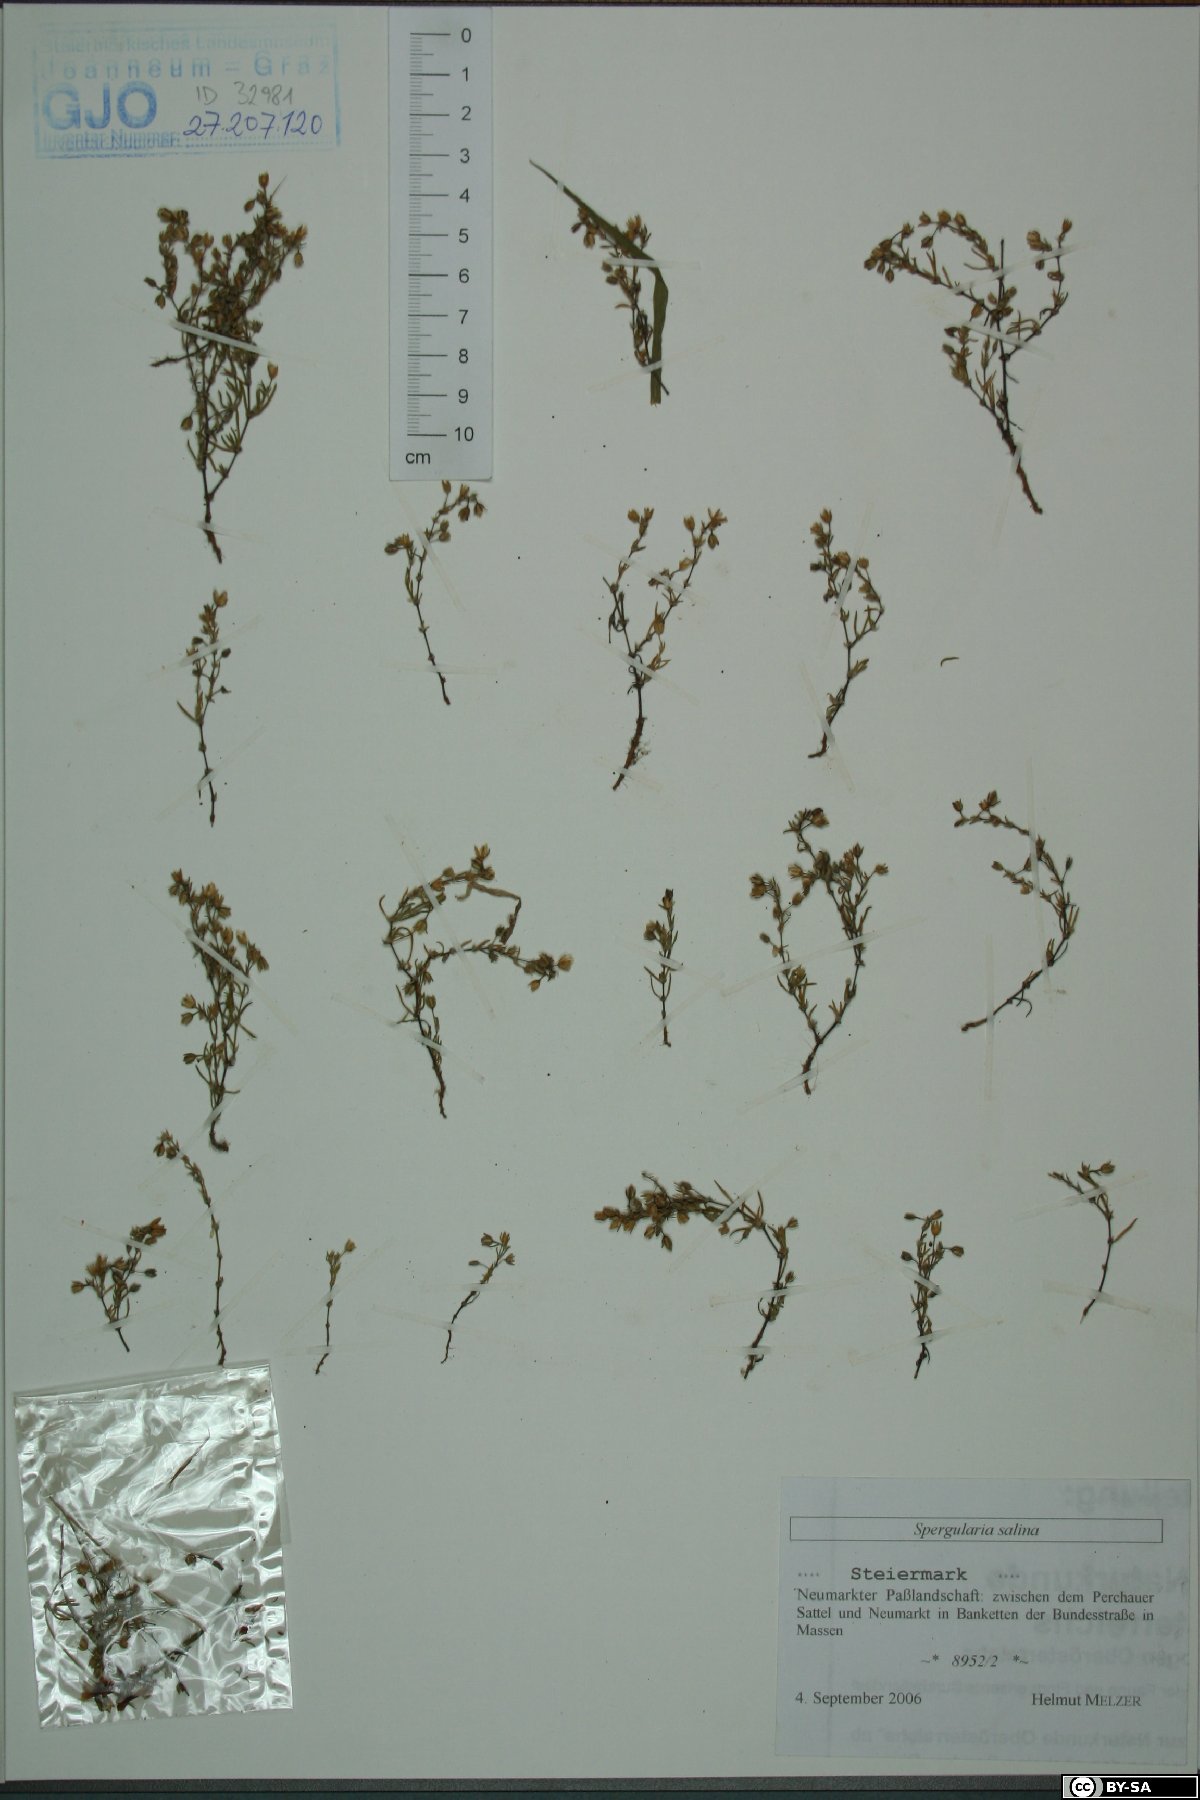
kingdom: Plantae
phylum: Tracheophyta
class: Magnoliopsida
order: Caryophyllales
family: Caryophyllaceae
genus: Spergularia
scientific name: Spergularia marina
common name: Lesser sea-spurrey
